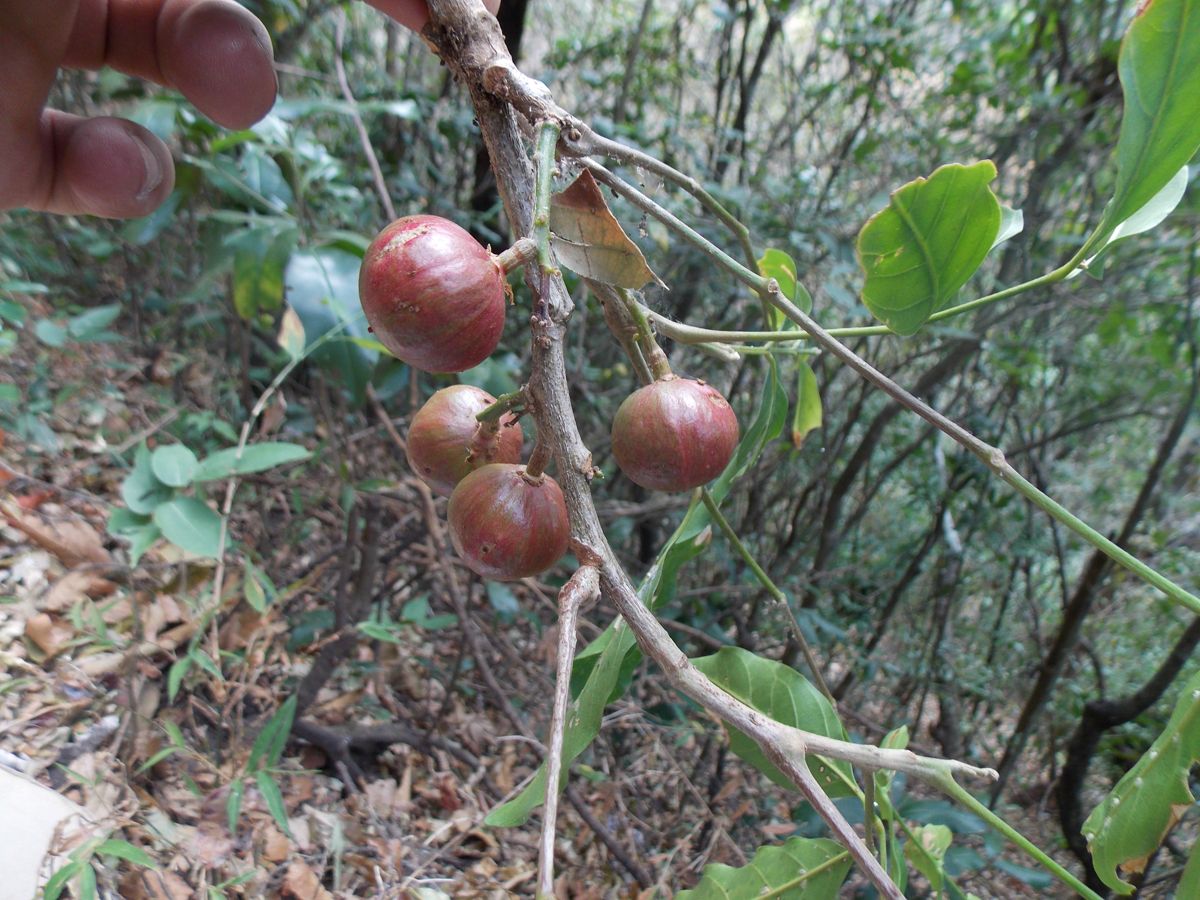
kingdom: Plantae
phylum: Tracheophyta
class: Magnoliopsida
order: Sapindales
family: Meliaceae
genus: Guarea
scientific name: Guarea glabra
